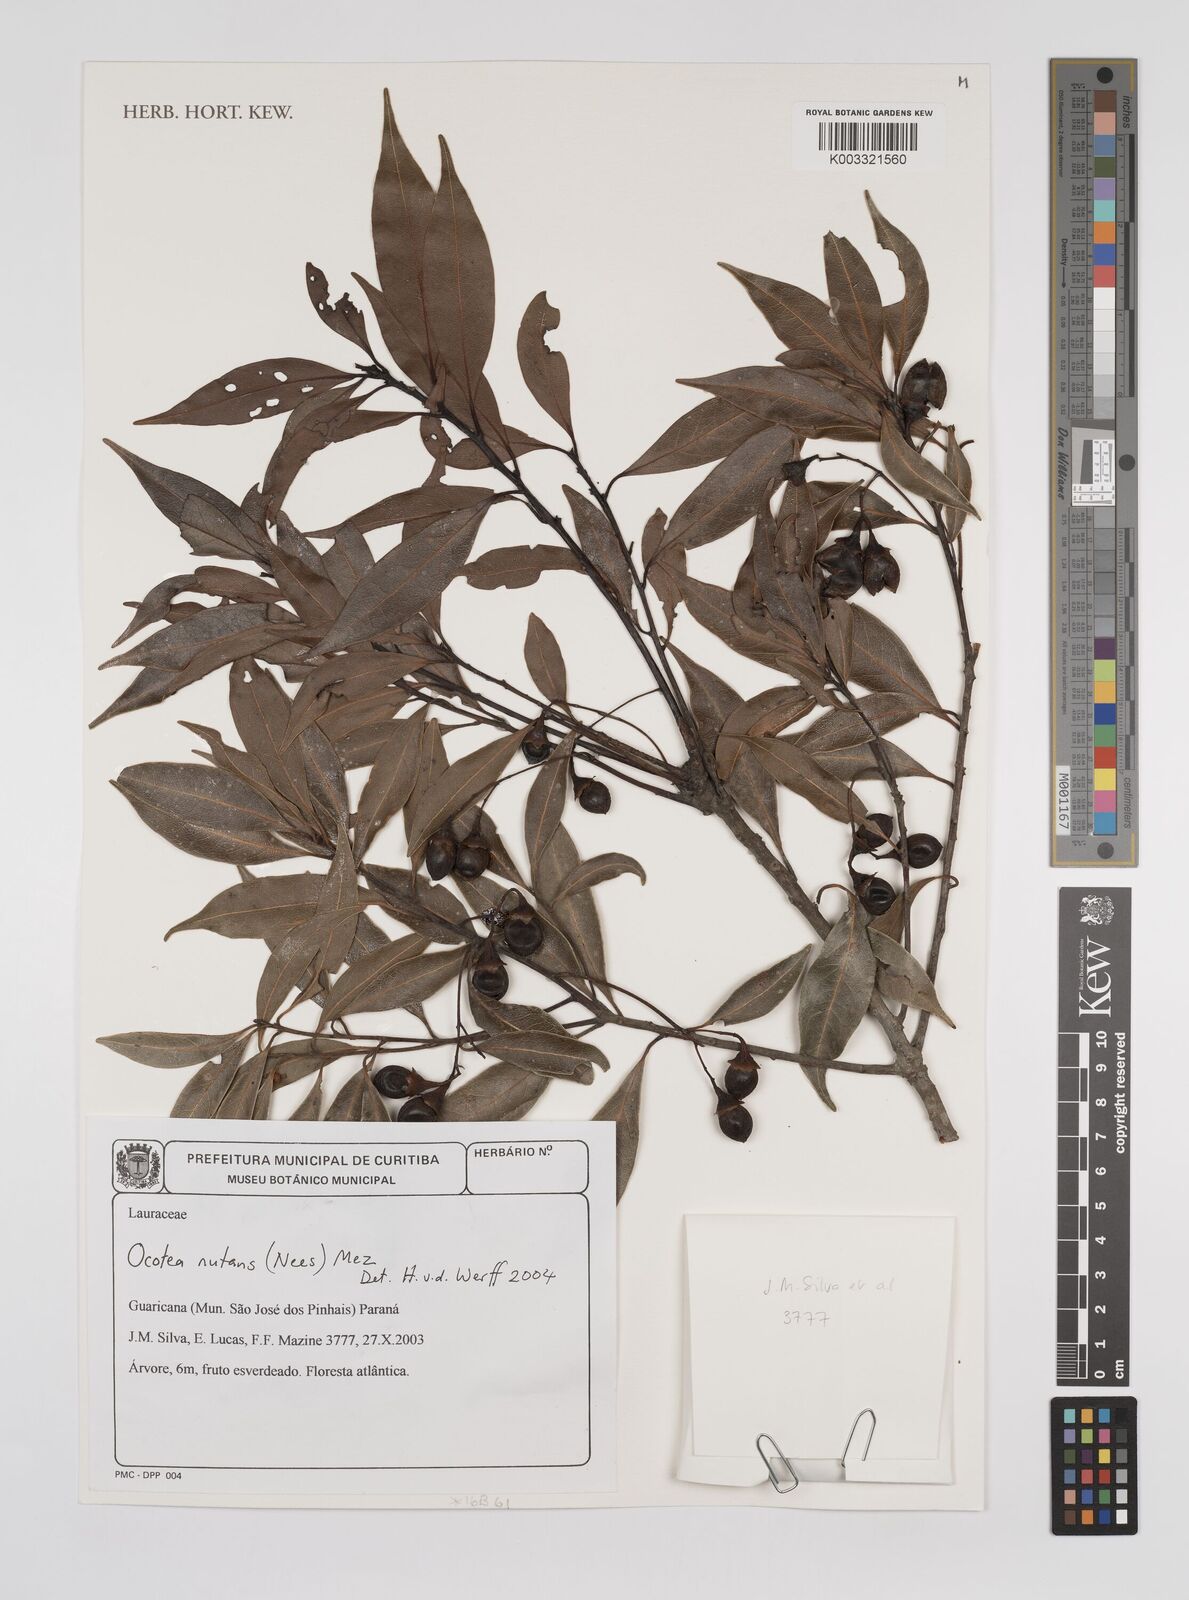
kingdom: Plantae
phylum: Tracheophyta
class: Magnoliopsida
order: Laurales
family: Lauraceae
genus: Mespilodaphne
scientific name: Mespilodaphne nutans
